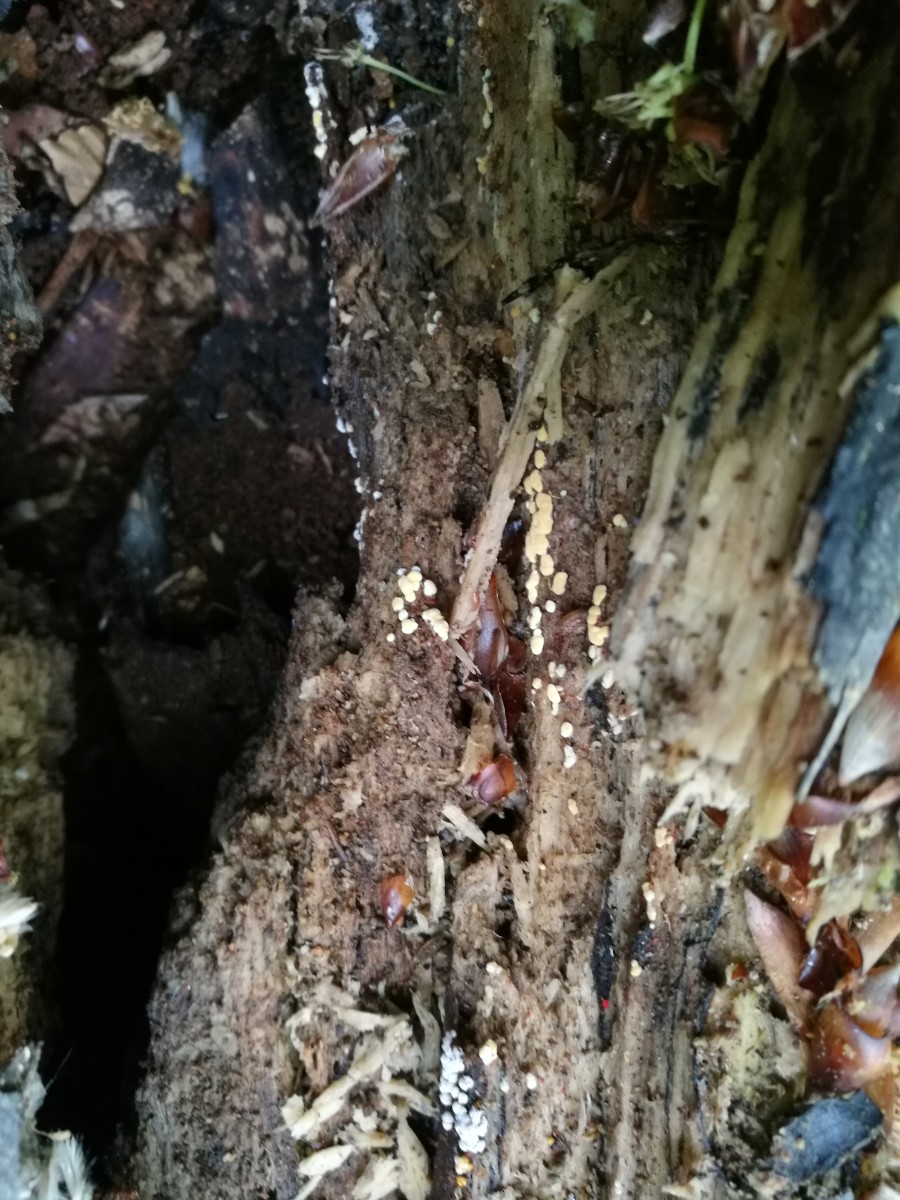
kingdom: Fungi
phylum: Basidiomycota
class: Agaricomycetes
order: Cantharellales
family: Botryobasidiaceae
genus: Botryobasidium
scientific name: Botryobasidium aureum
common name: gylden spindhinde
